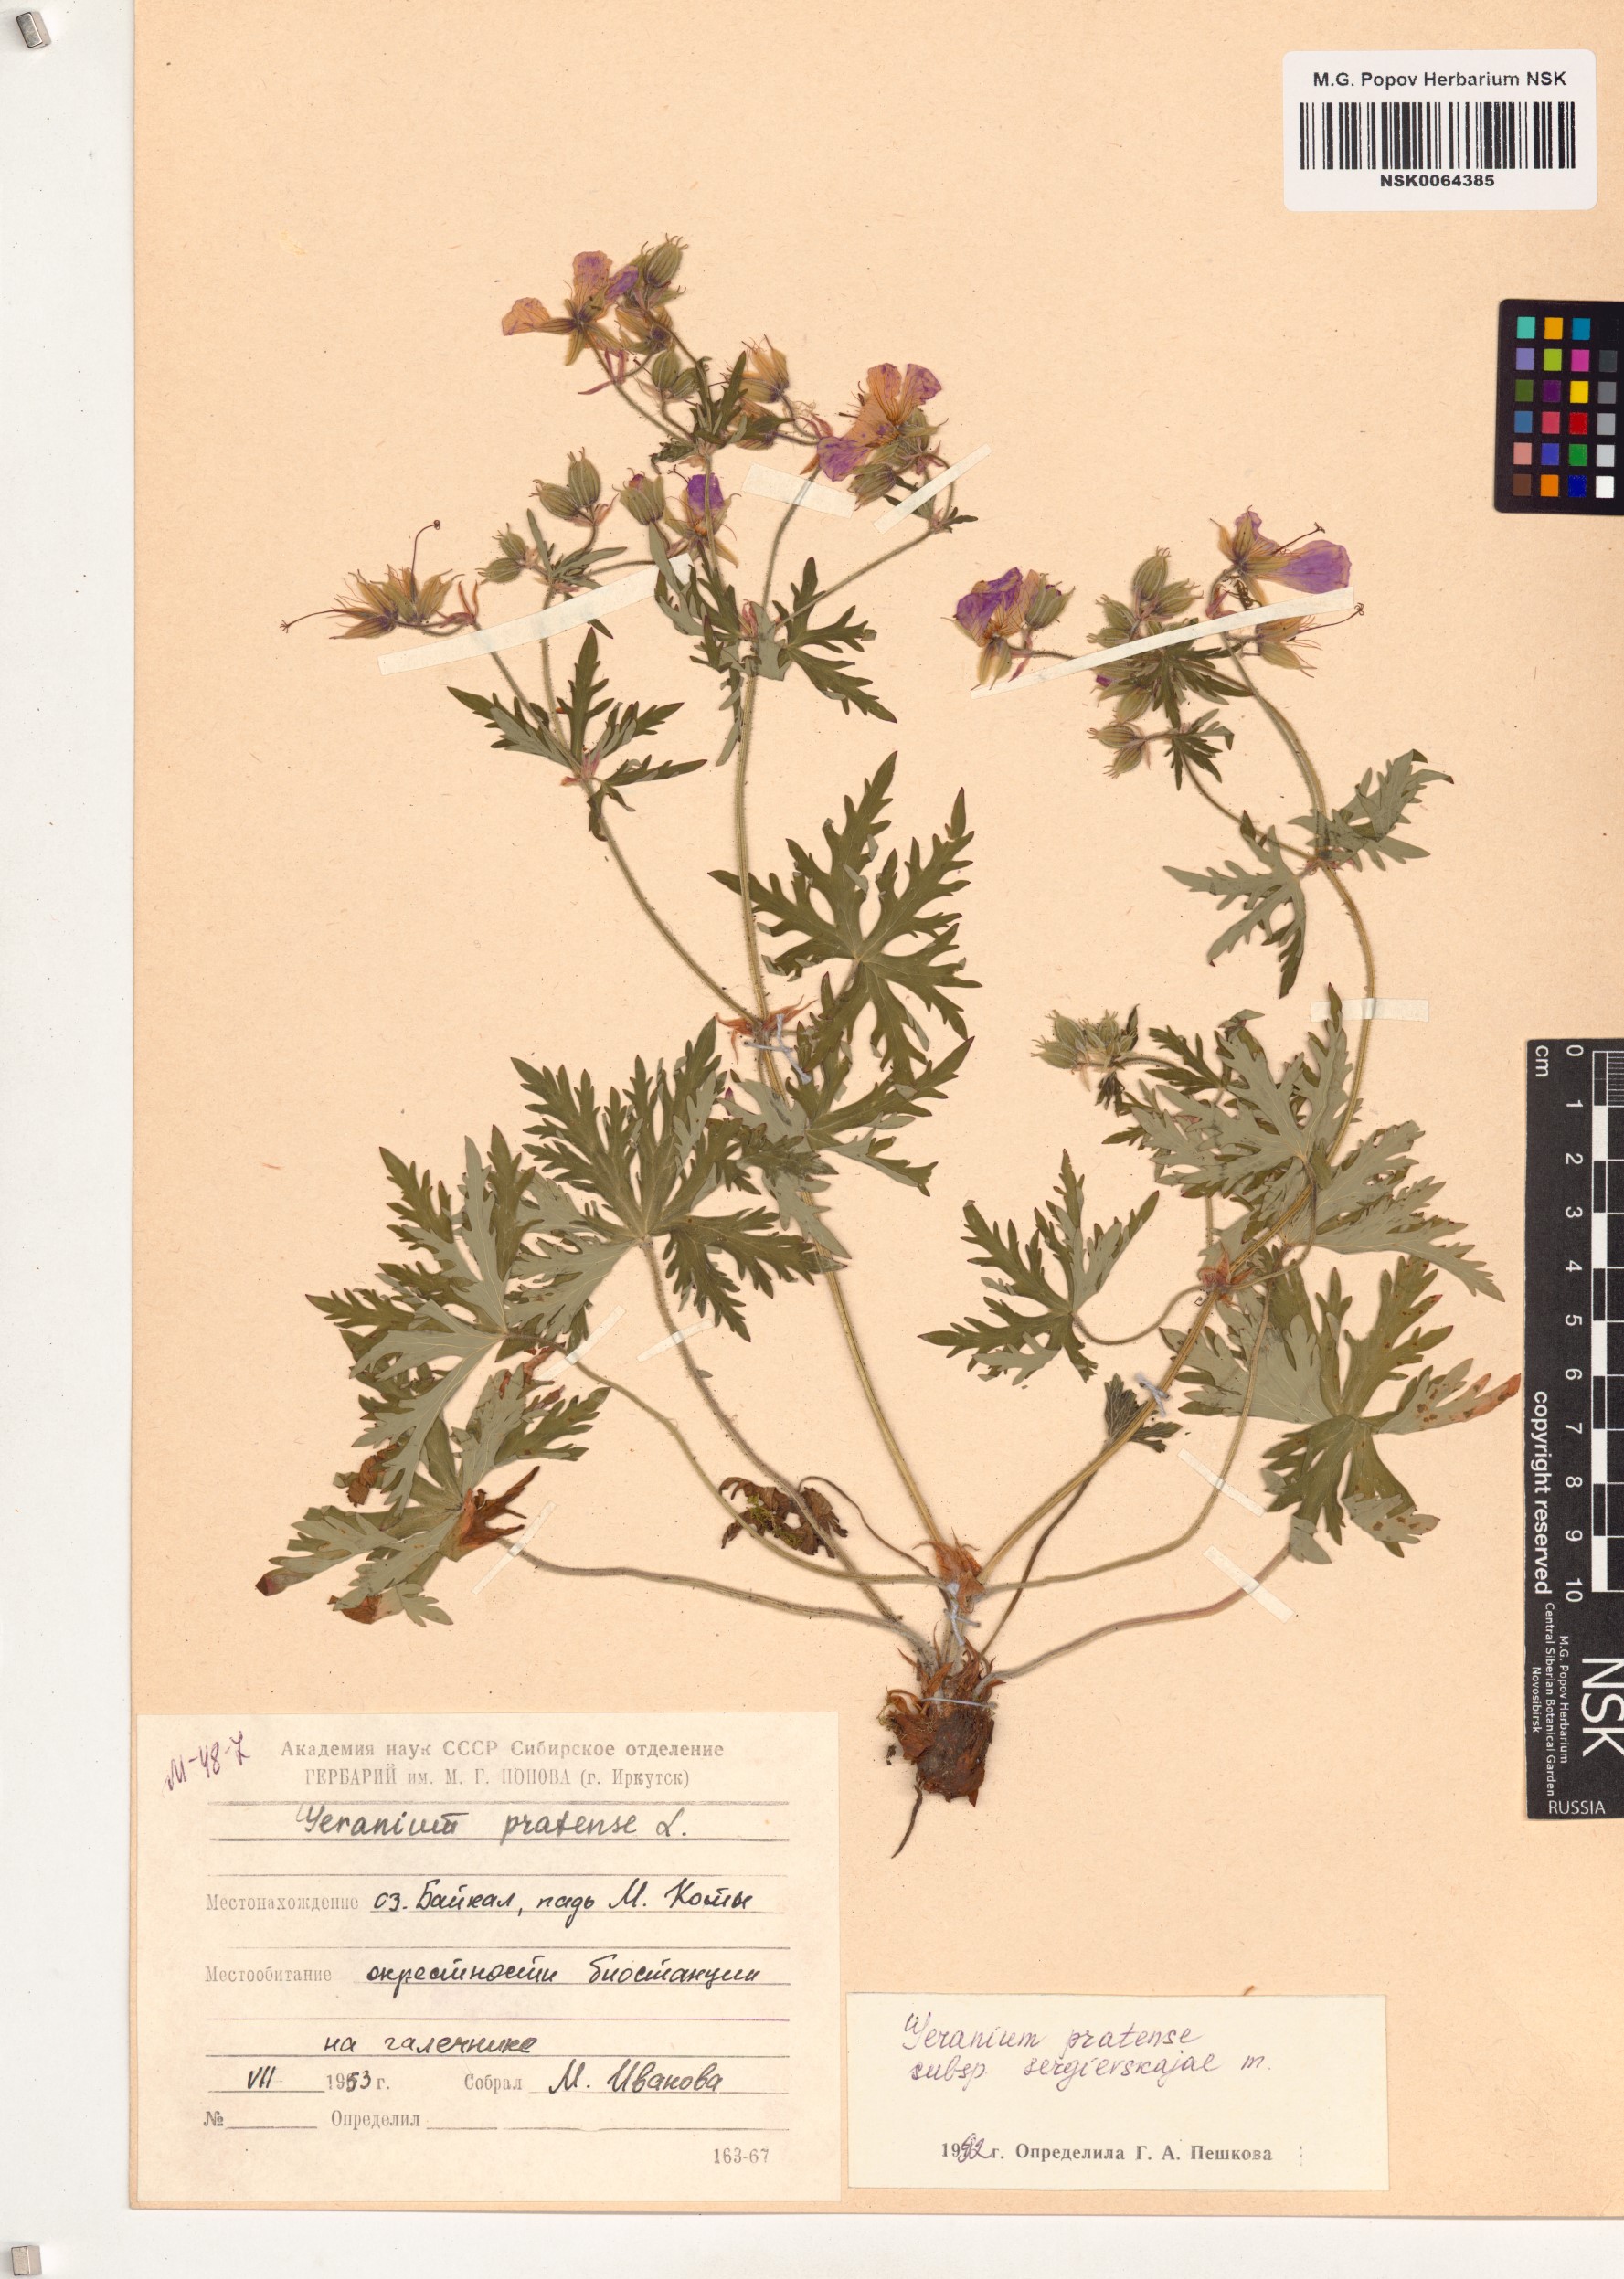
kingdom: Plantae
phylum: Tracheophyta
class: Magnoliopsida
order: Geraniales
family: Geraniaceae
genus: Geranium
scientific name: Geranium pratense
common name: Meadow crane's-bill
